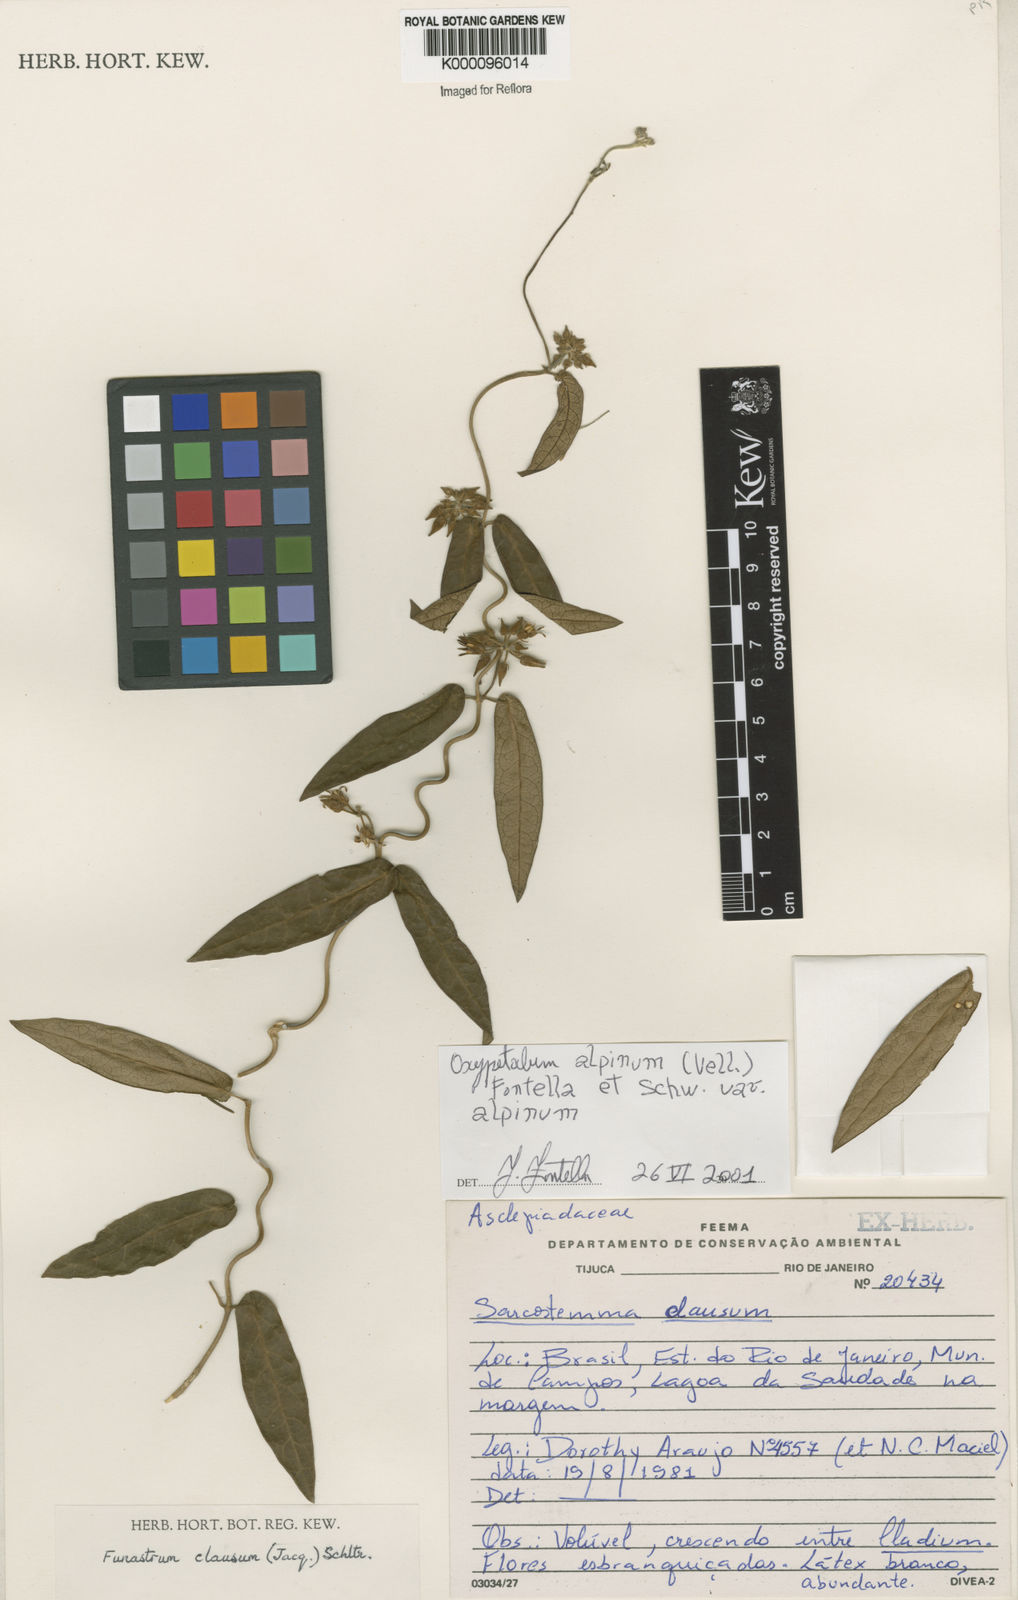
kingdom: Plantae
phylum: Tracheophyta
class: Magnoliopsida
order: Gentianales
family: Apocynaceae
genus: Oxypetalum
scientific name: Oxypetalum alpinum
